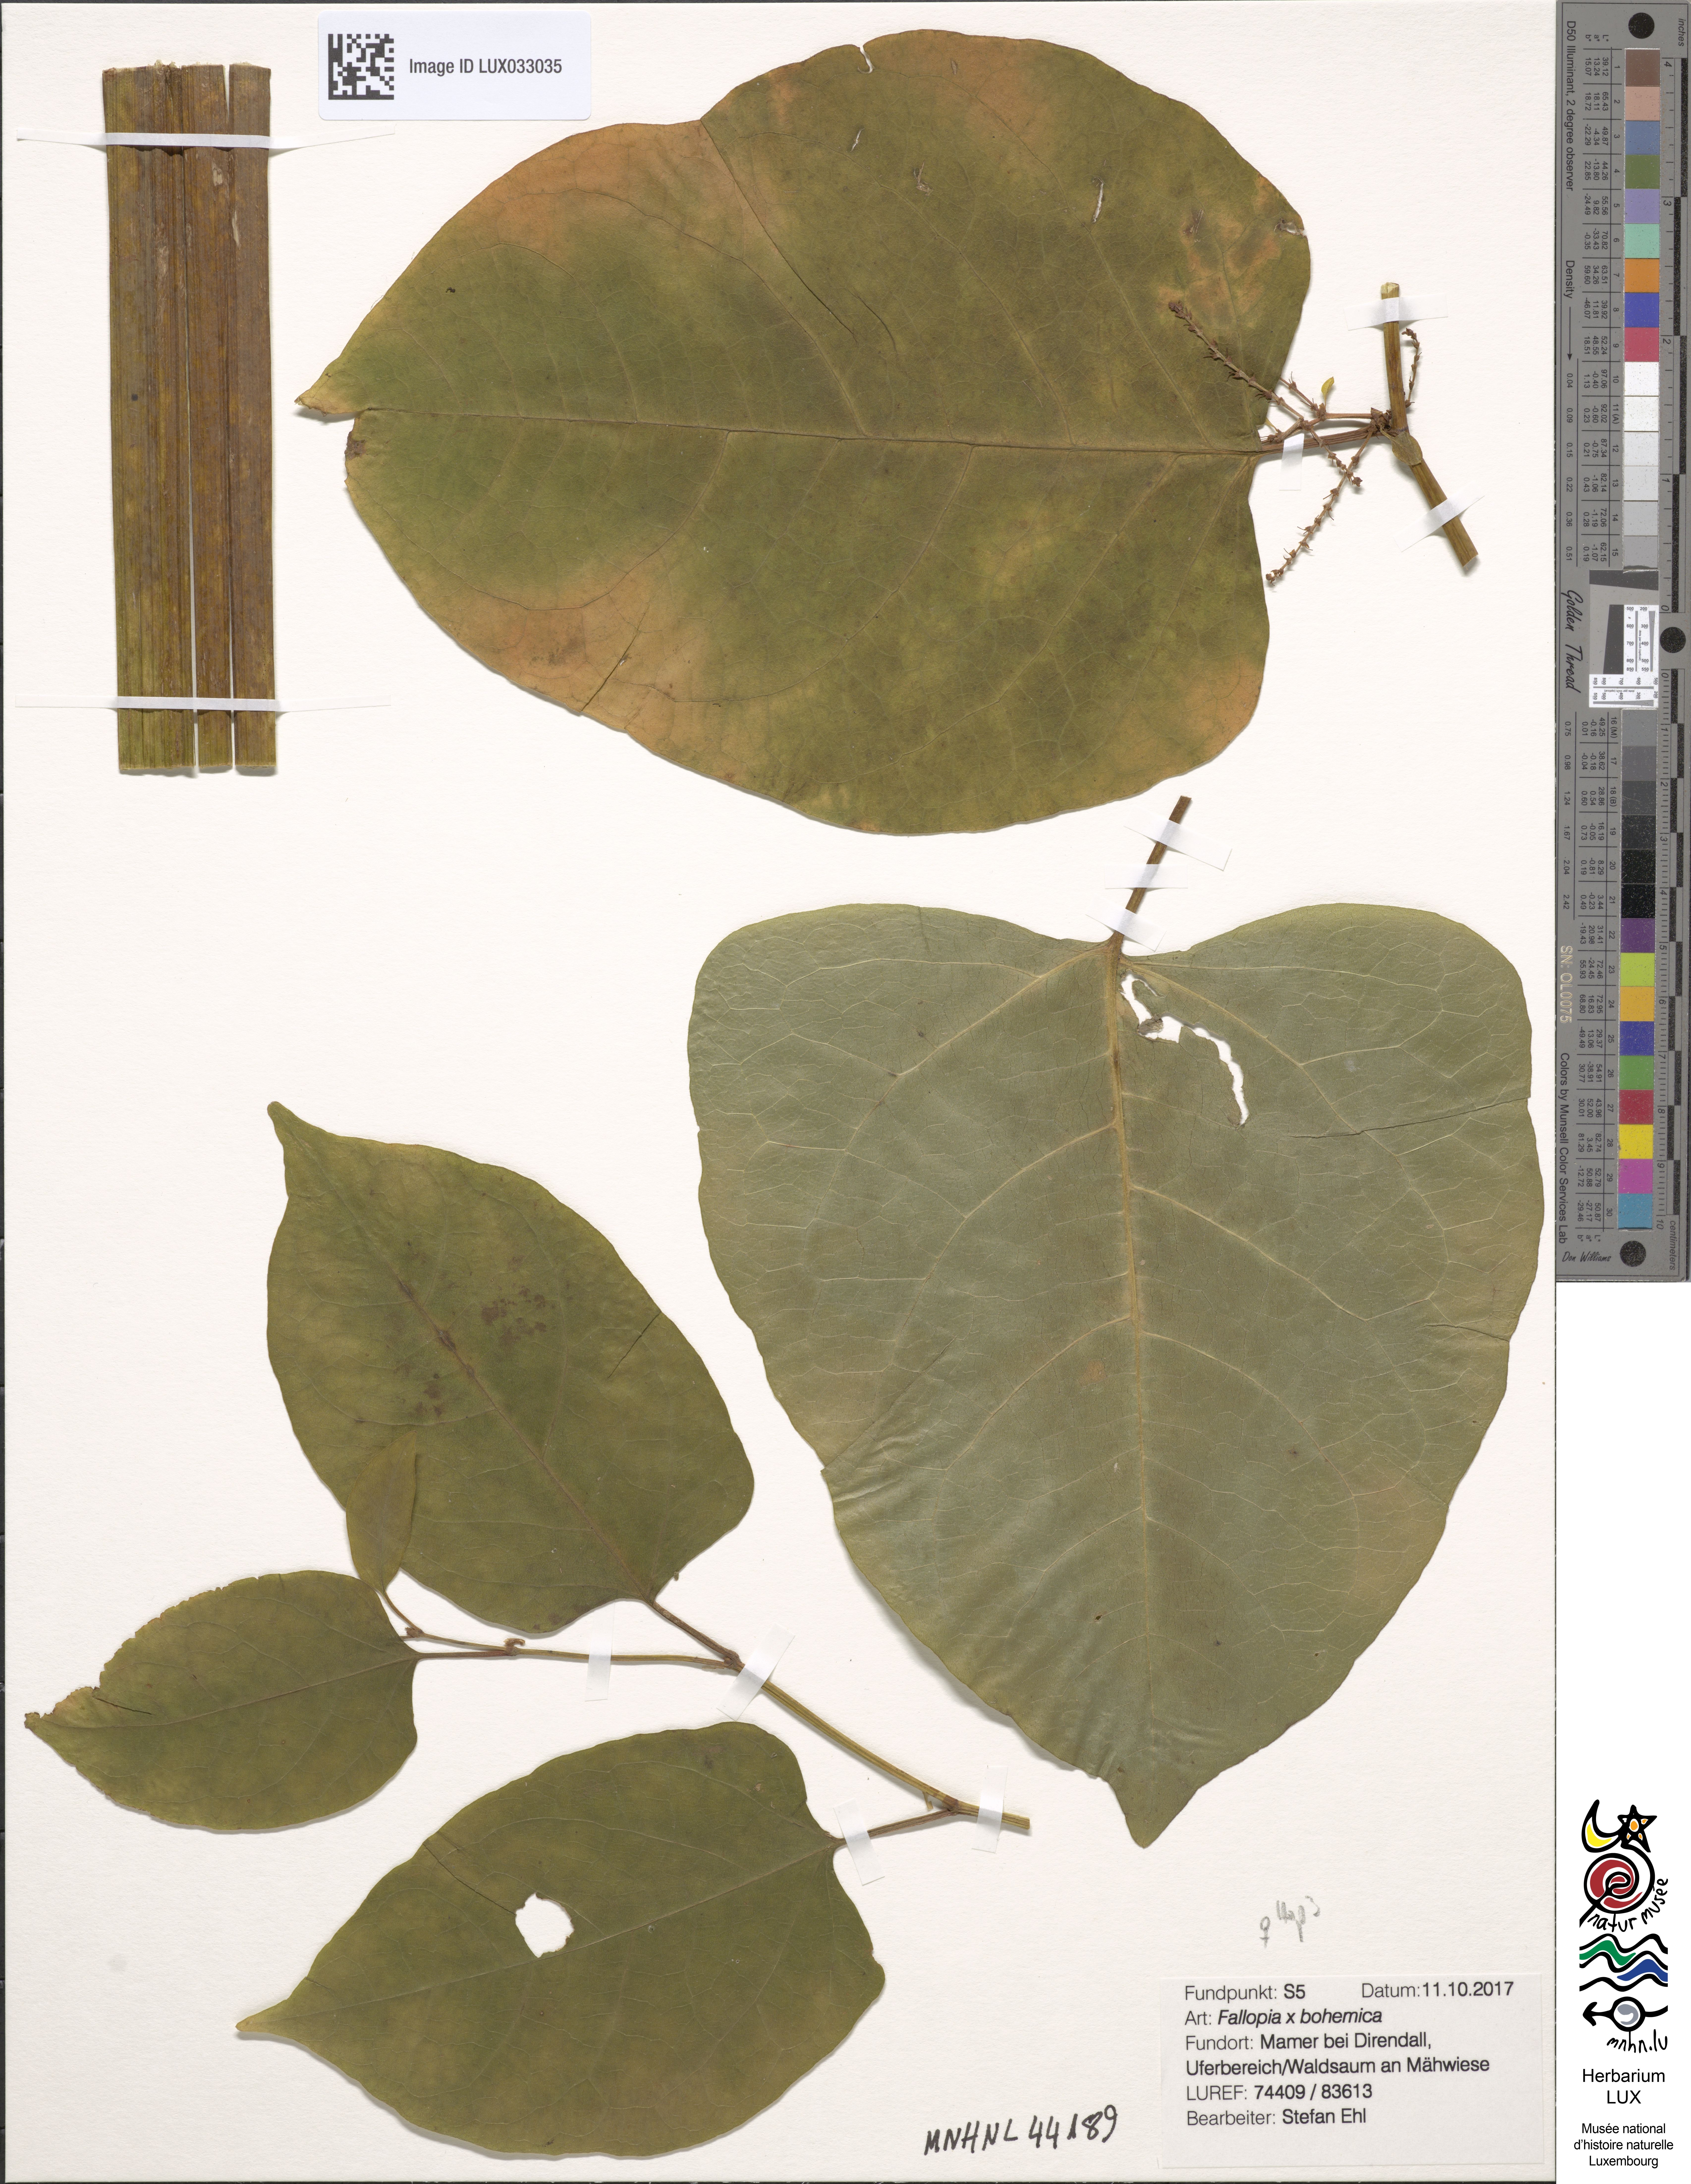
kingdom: Plantae
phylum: Tracheophyta
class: Magnoliopsida
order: Caryophyllales
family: Polygonaceae
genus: Reynoutria
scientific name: Reynoutria bohemica
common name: Bohemian knotweed
